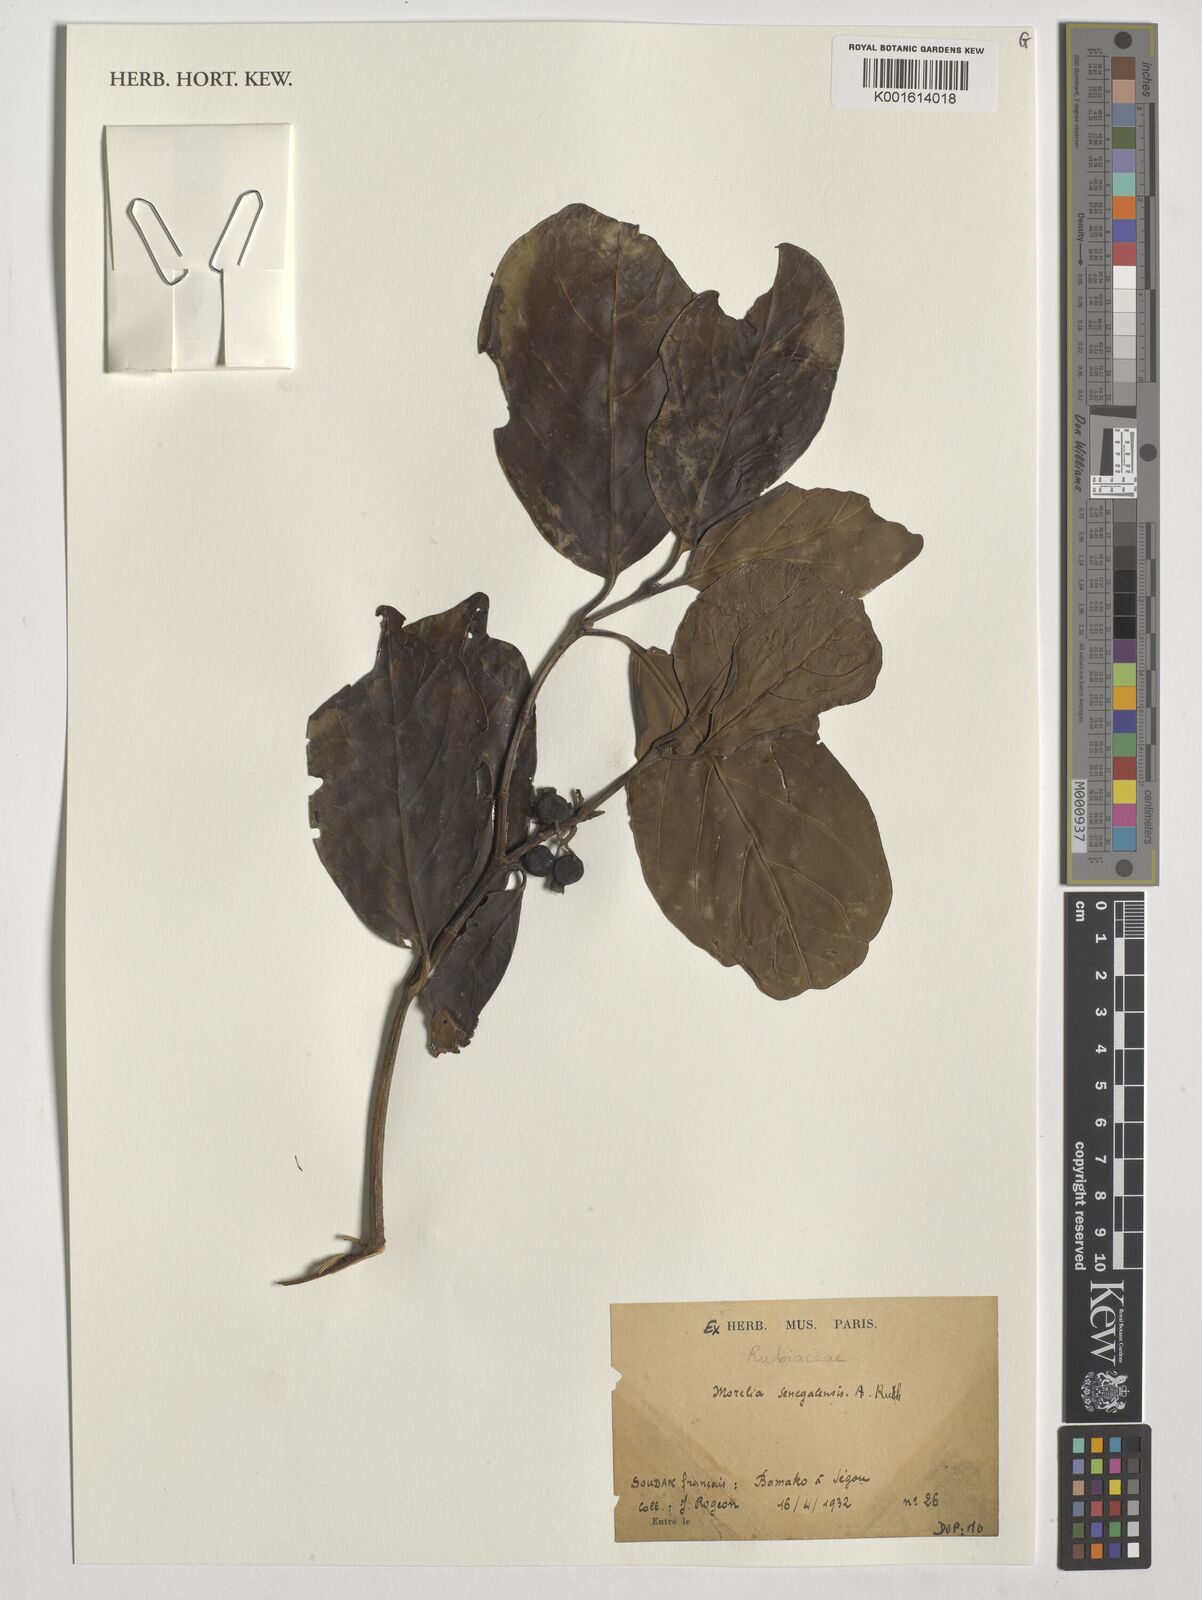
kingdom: Plantae
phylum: Tracheophyta
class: Magnoliopsida
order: Gentianales
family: Rubiaceae
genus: Morelia
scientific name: Morelia senegalensis
